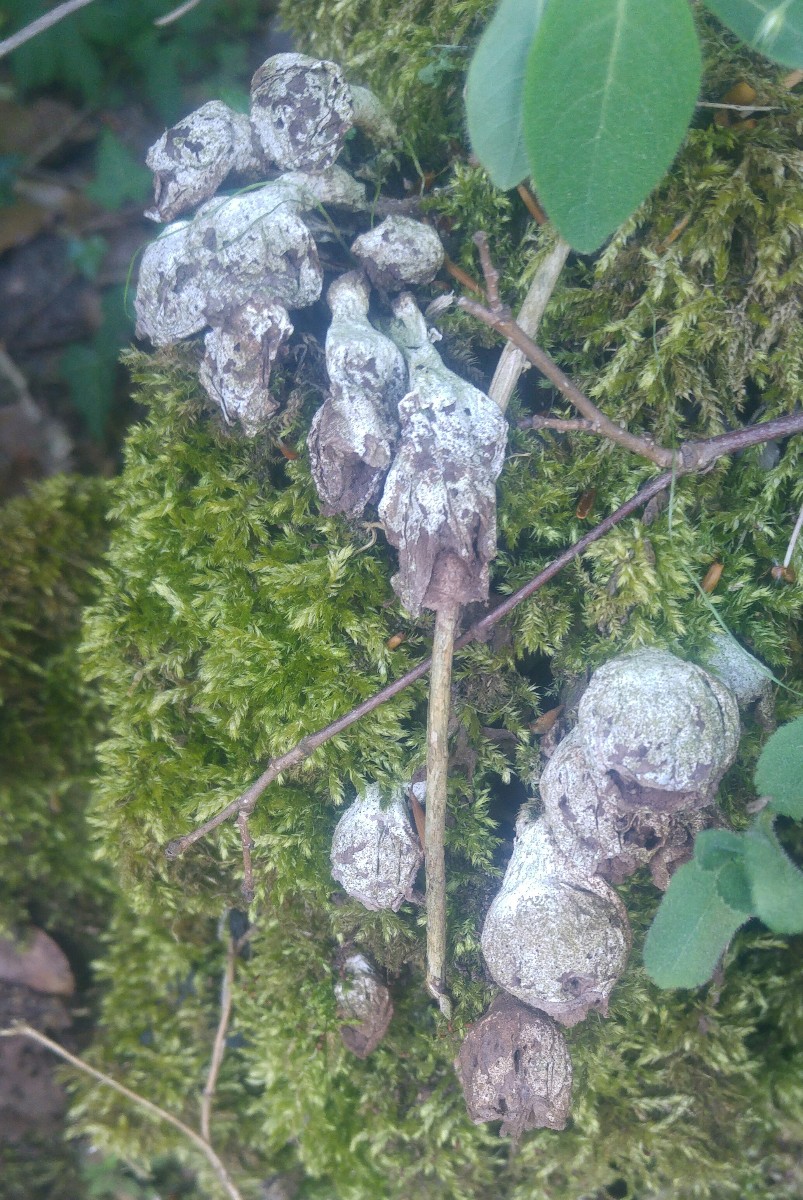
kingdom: Fungi
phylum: Basidiomycota
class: Agaricomycetes
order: Agaricales
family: Lycoperdaceae
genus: Apioperdon
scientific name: Apioperdon pyriforme
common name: pære-støvbold
